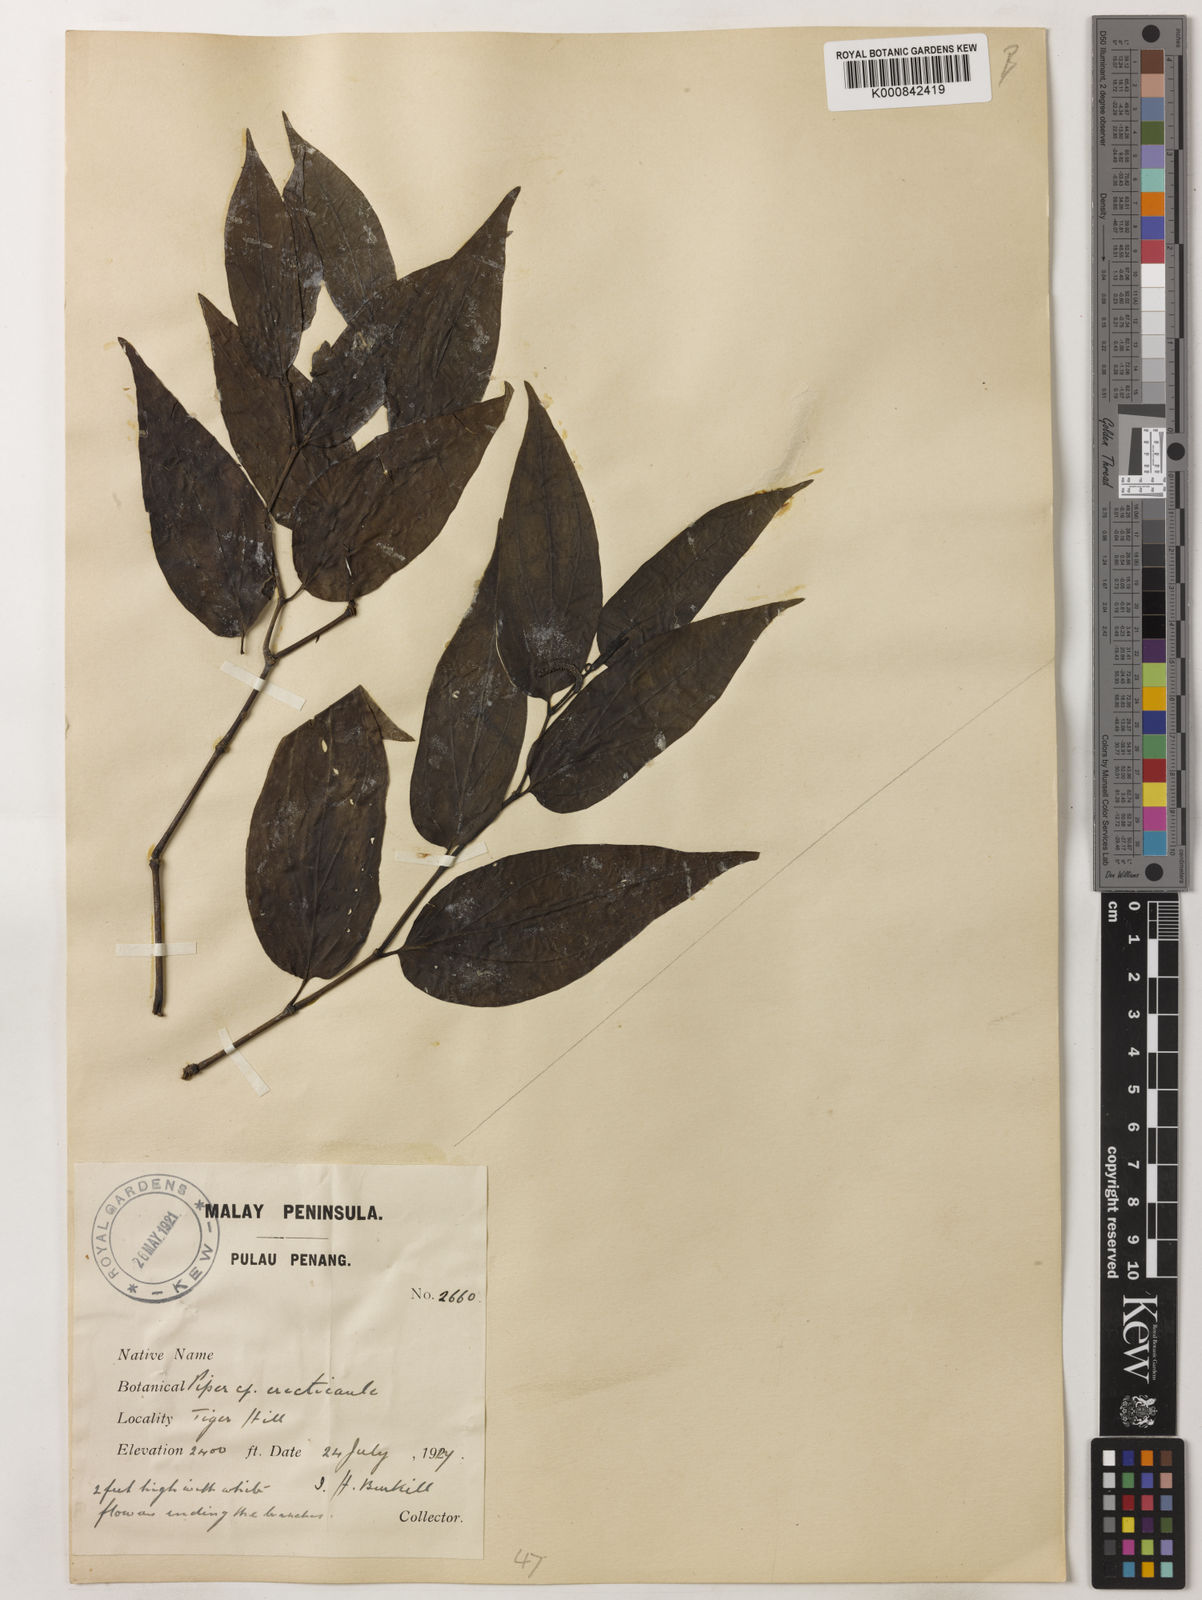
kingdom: Plantae
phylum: Tracheophyta
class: Magnoliopsida
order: Piperales
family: Piperaceae
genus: Piper
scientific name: Piper erecticaule
